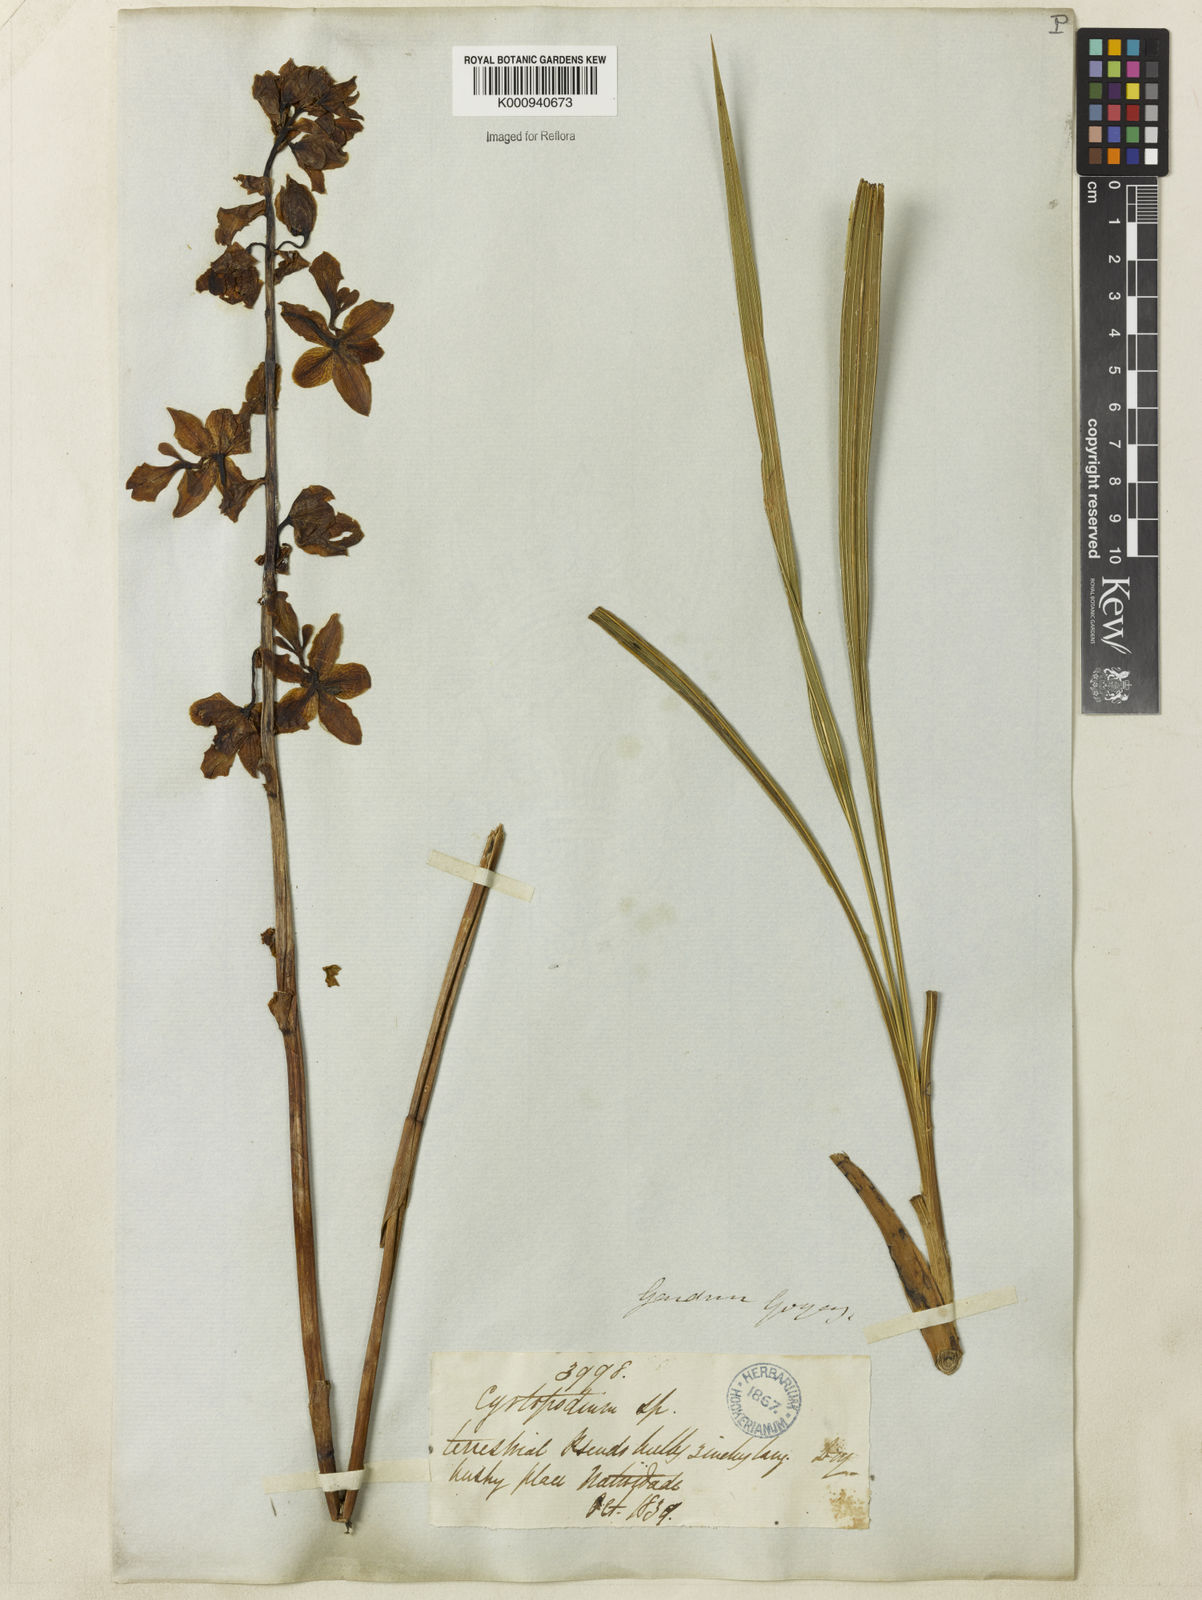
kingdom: Plantae
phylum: Tracheophyta
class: Liliopsida
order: Asparagales
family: Orchidaceae
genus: Cyrtopodium
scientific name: Cyrtopodium blanchetii
